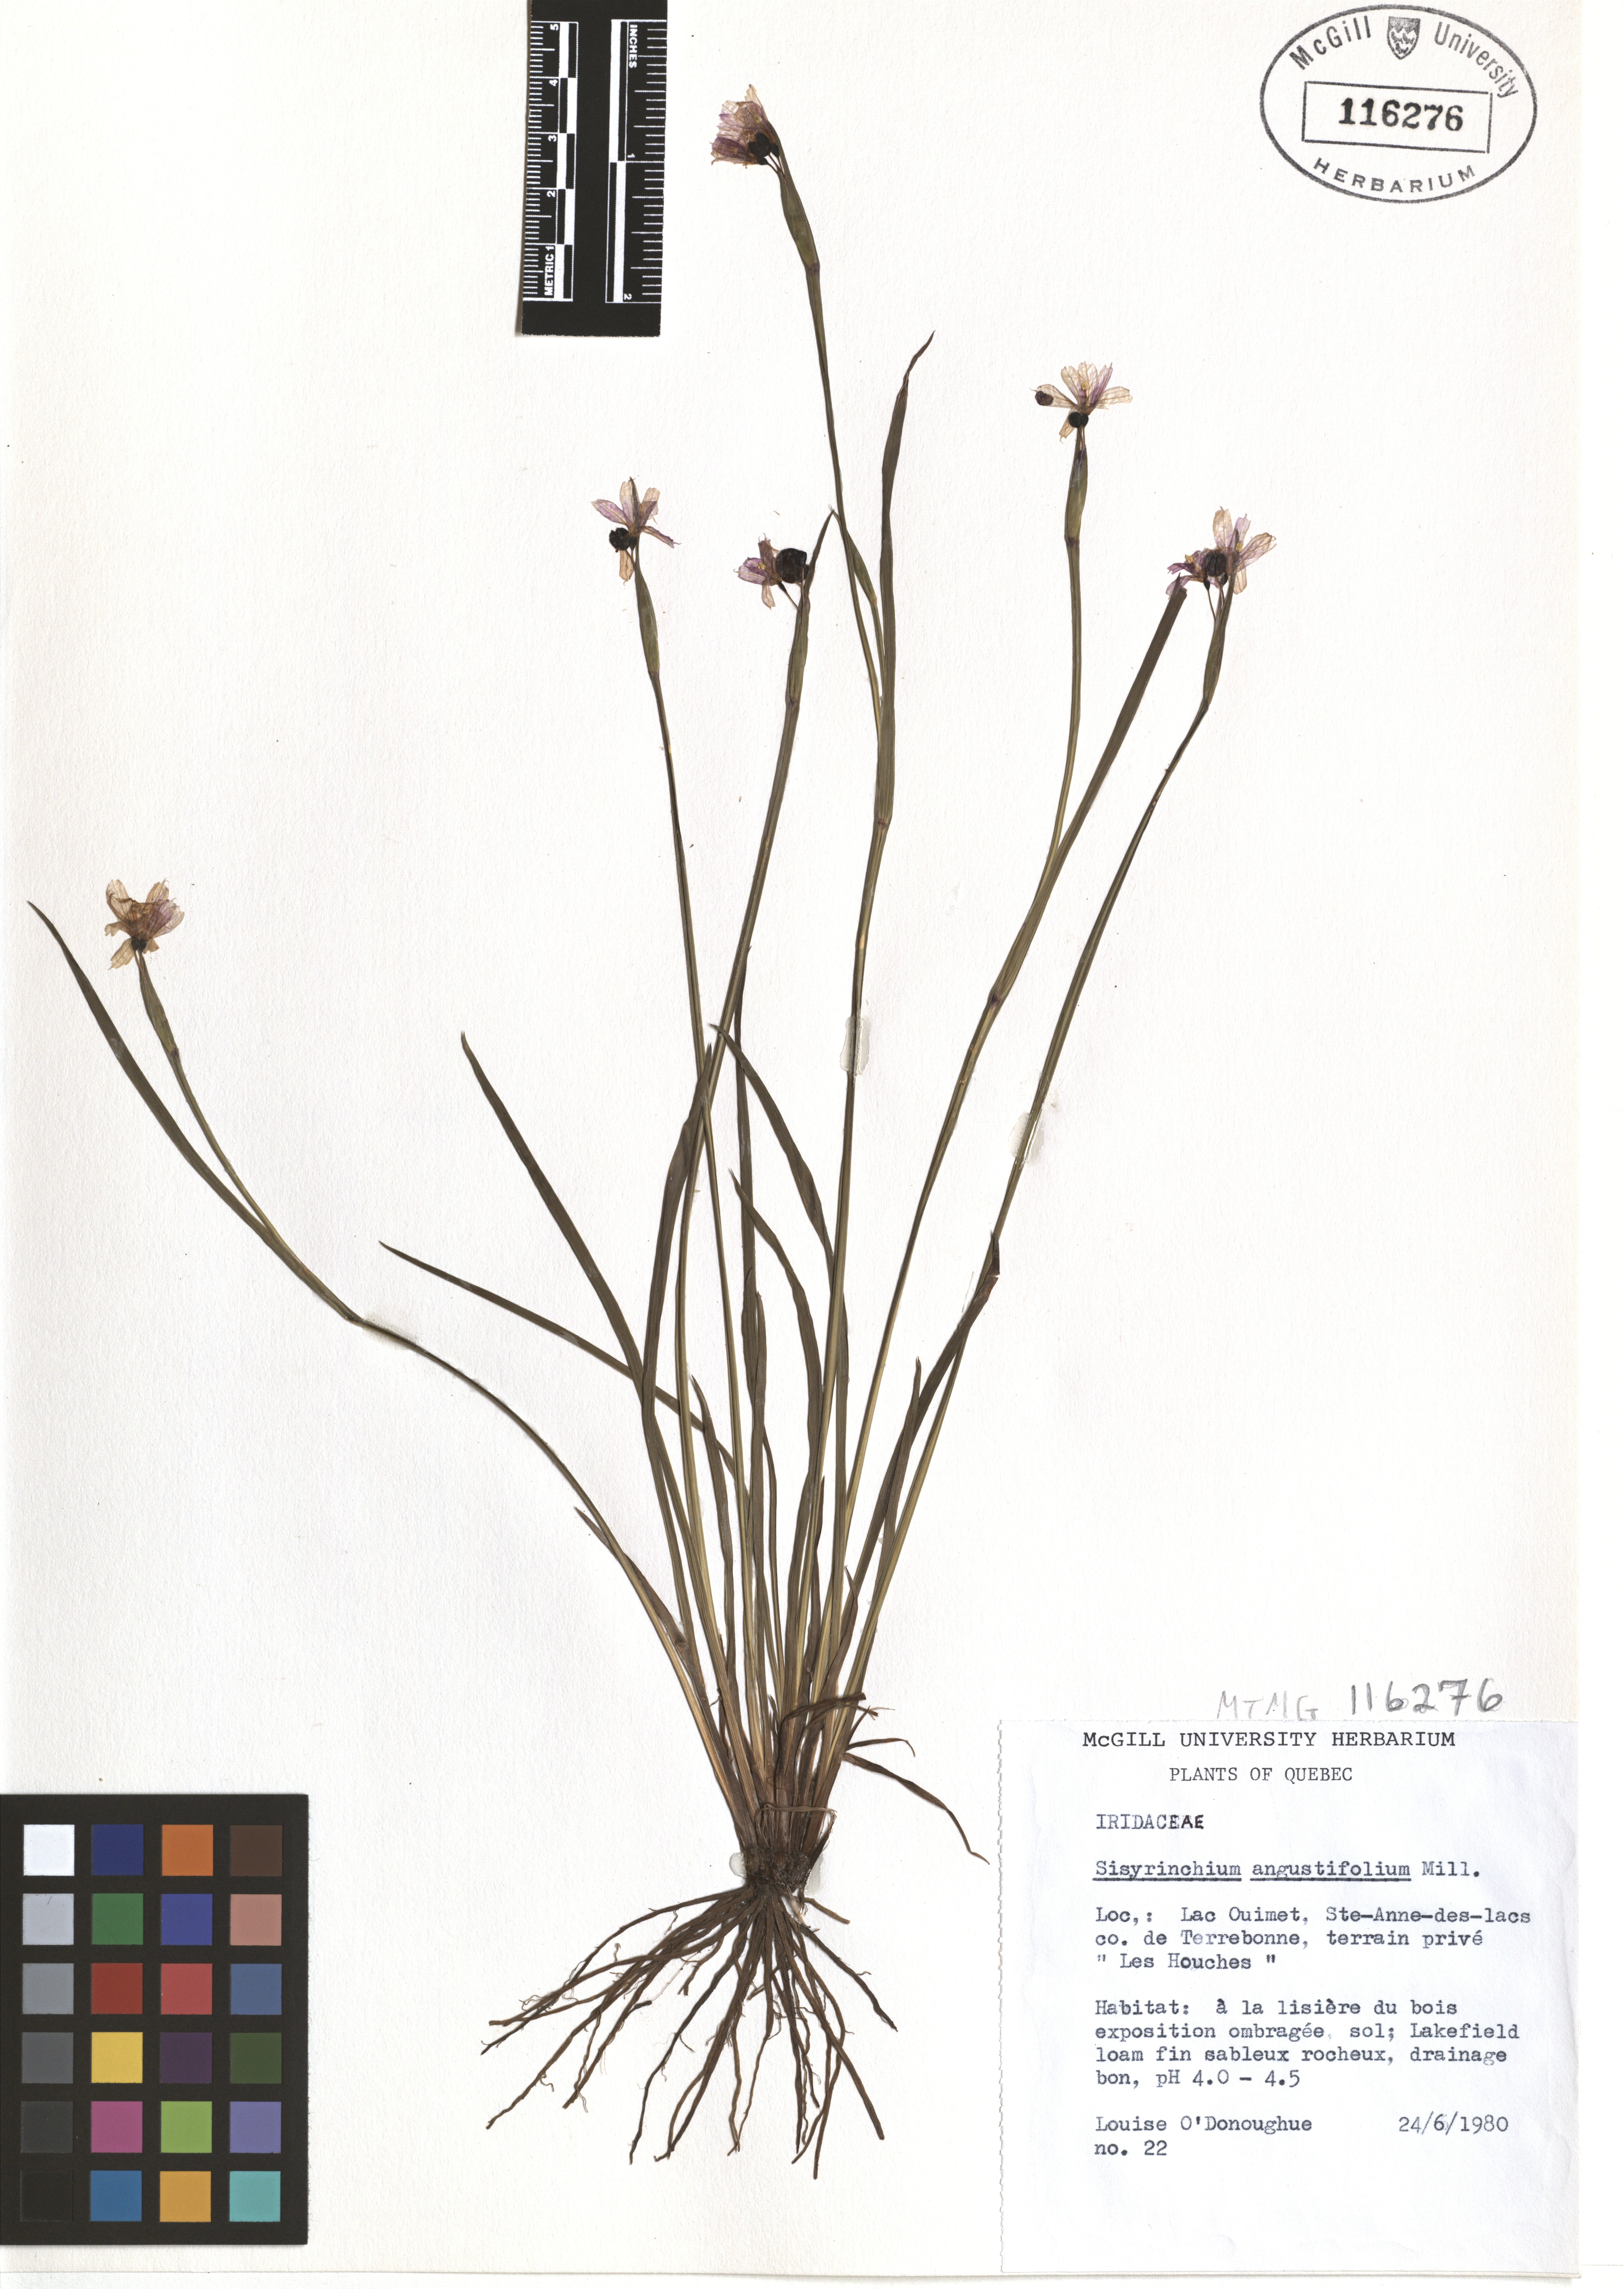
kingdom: Plantae
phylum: Tracheophyta
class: Liliopsida
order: Asparagales
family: Iridaceae
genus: Sisyrinchium
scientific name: Sisyrinchium angustifolium
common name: Narrow-leaf blue-eyed-grass
